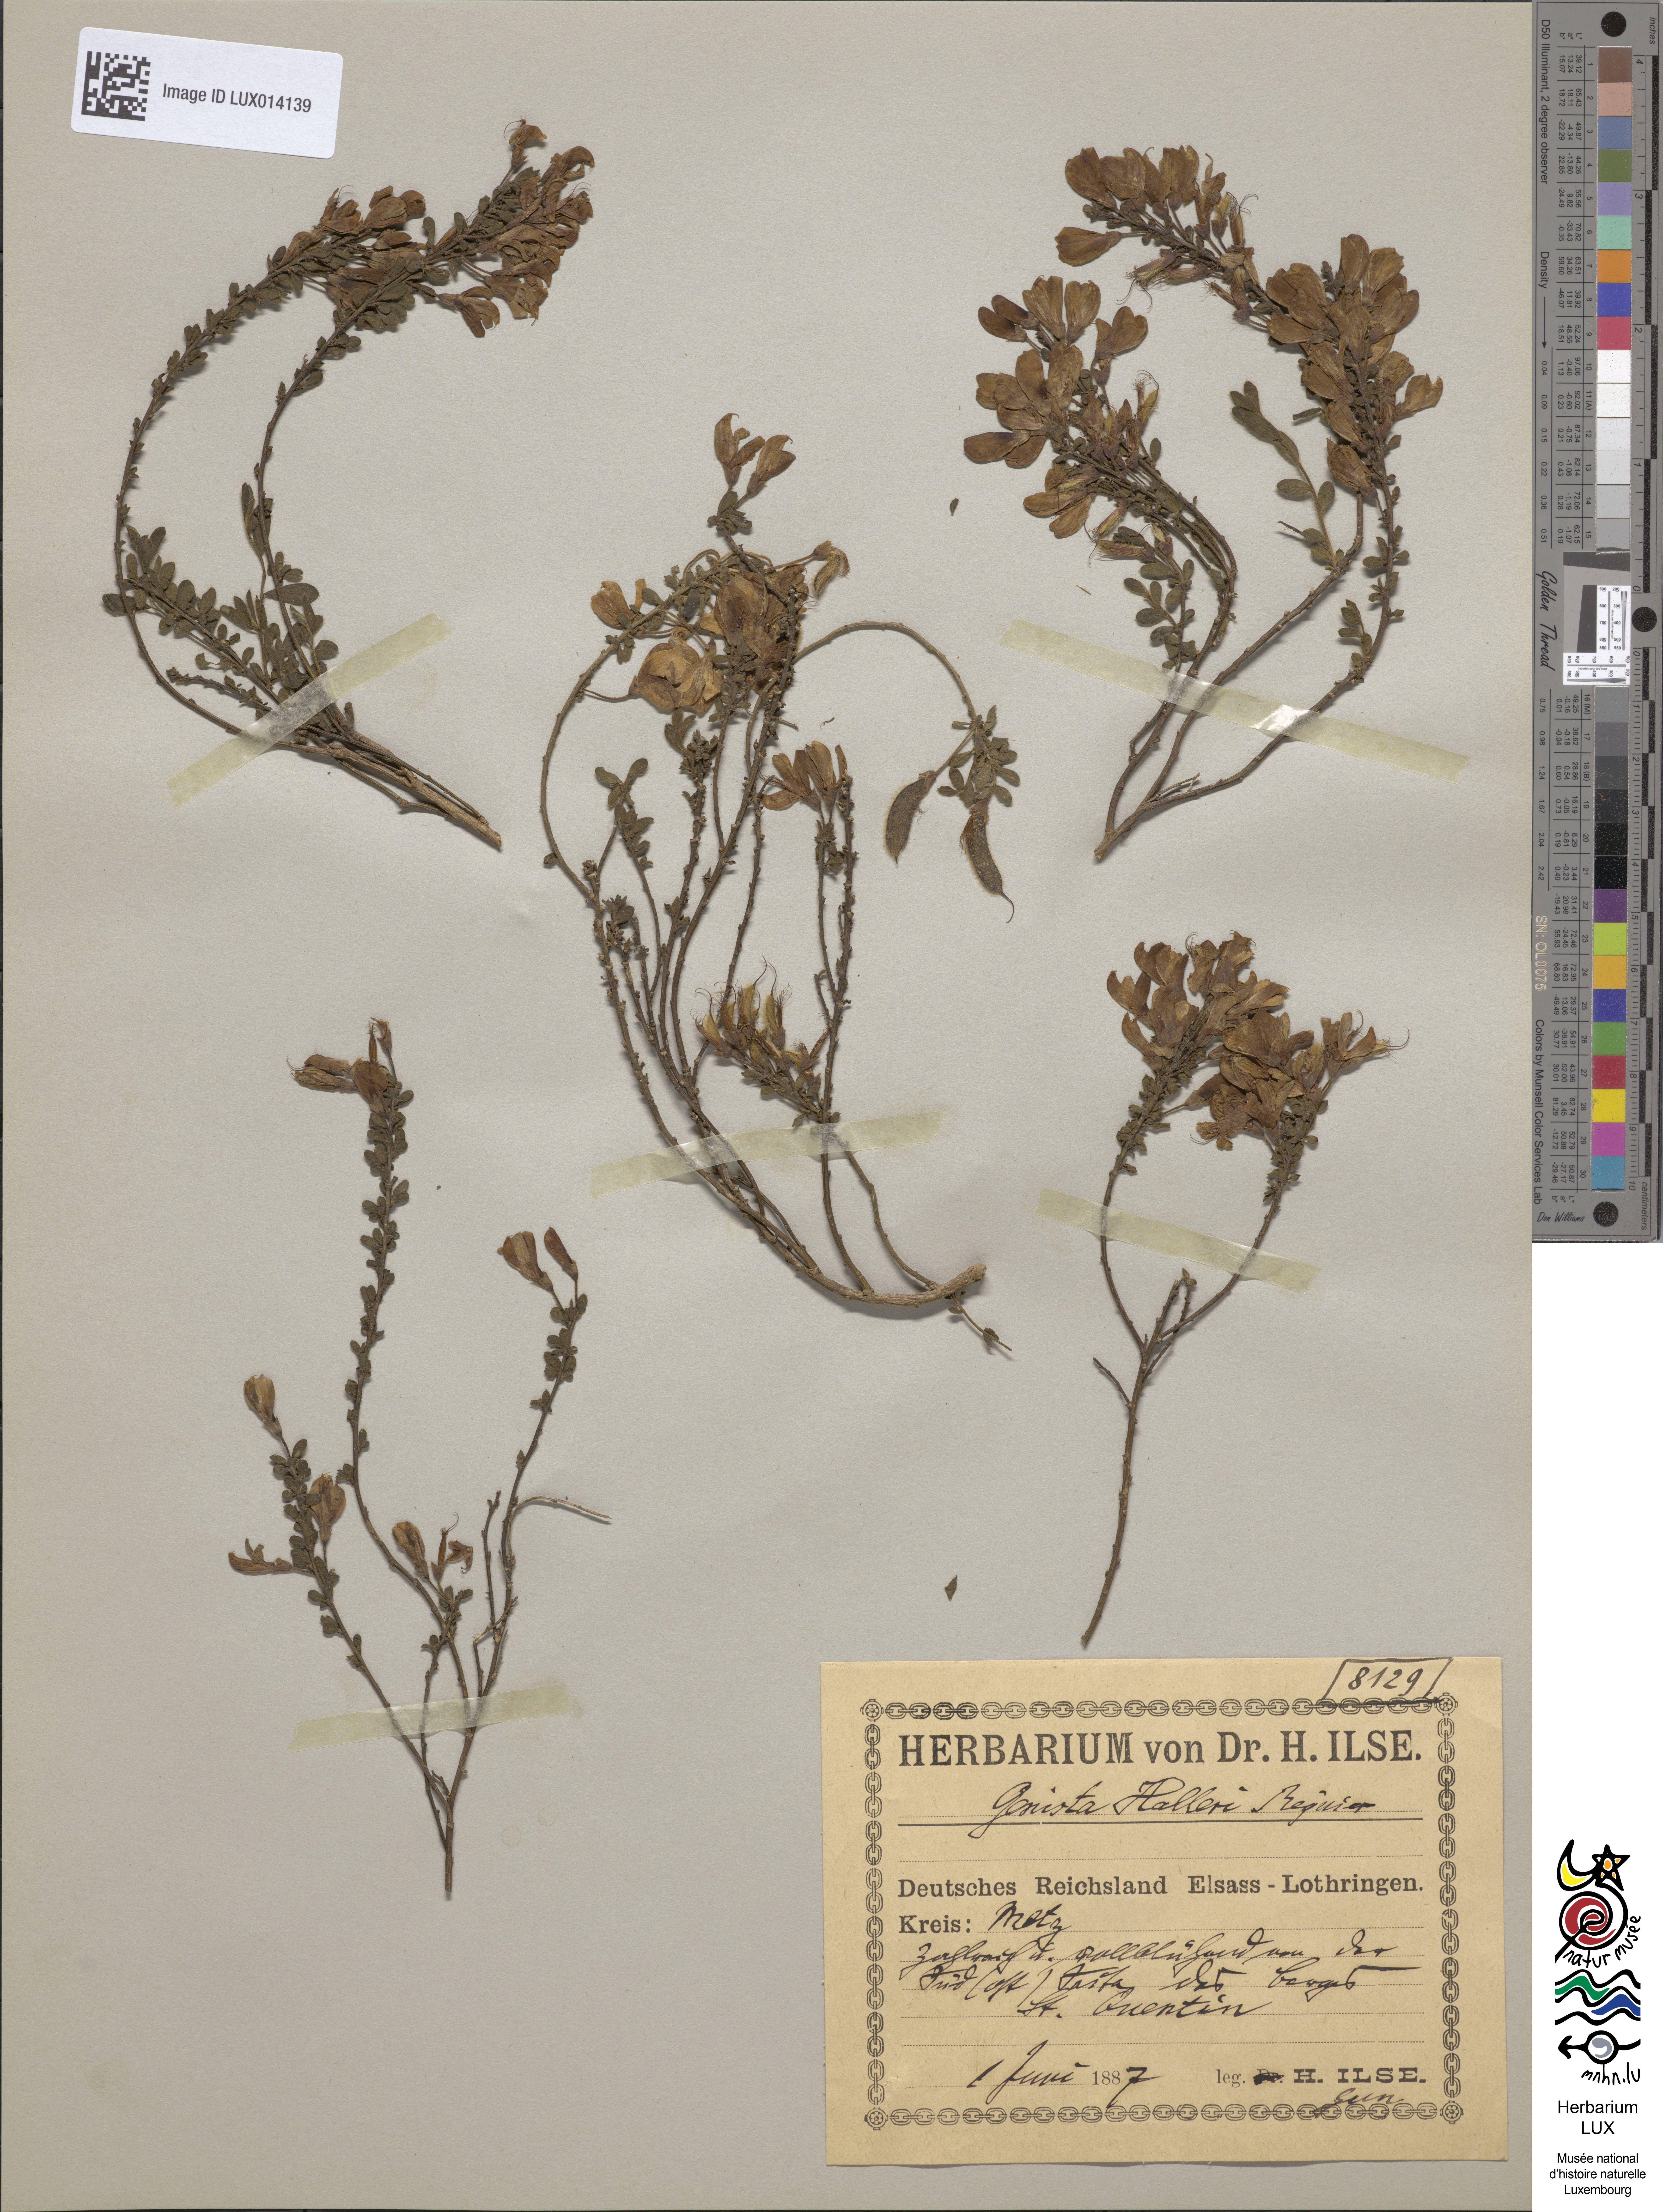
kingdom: Plantae
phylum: Tracheophyta
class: Magnoliopsida
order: Fabales
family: Fabaceae
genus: Cytisus
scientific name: Cytisus decumbens
